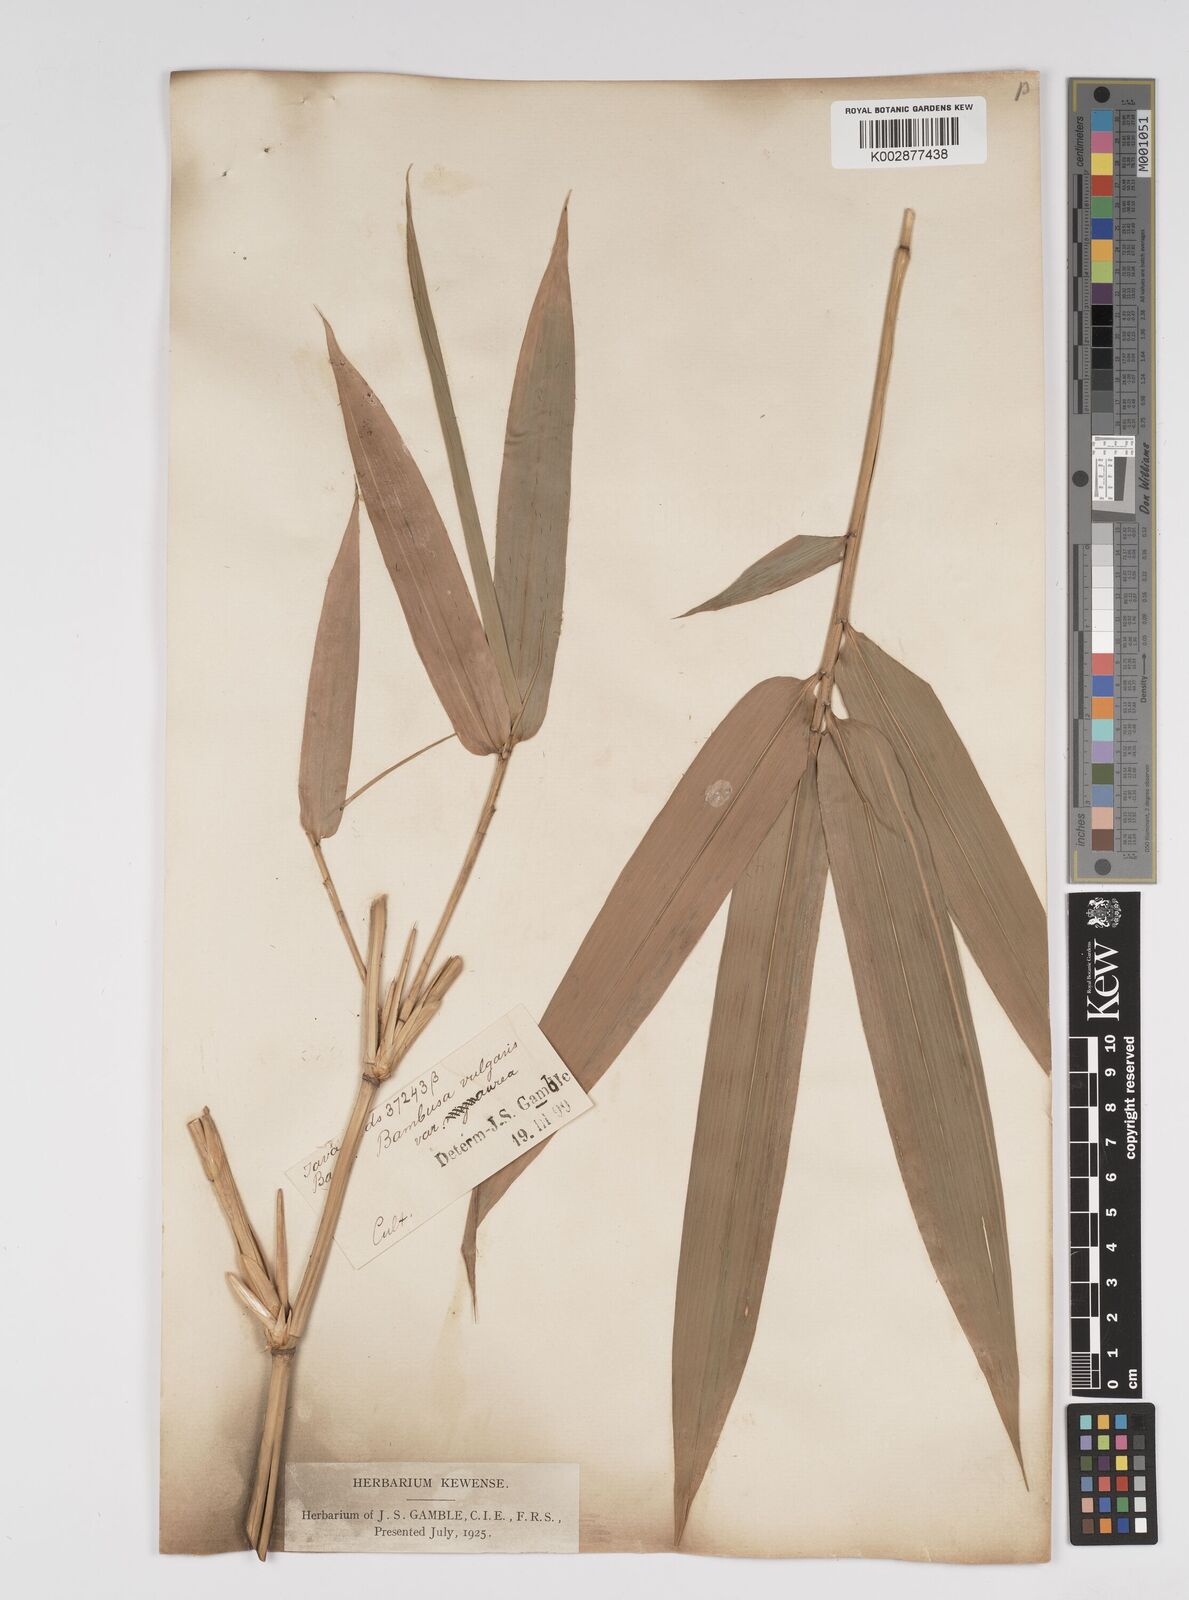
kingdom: Plantae
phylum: Tracheophyta
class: Liliopsida
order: Poales
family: Poaceae
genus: Bambusa
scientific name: Bambusa vulgaris
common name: Common bamboo
